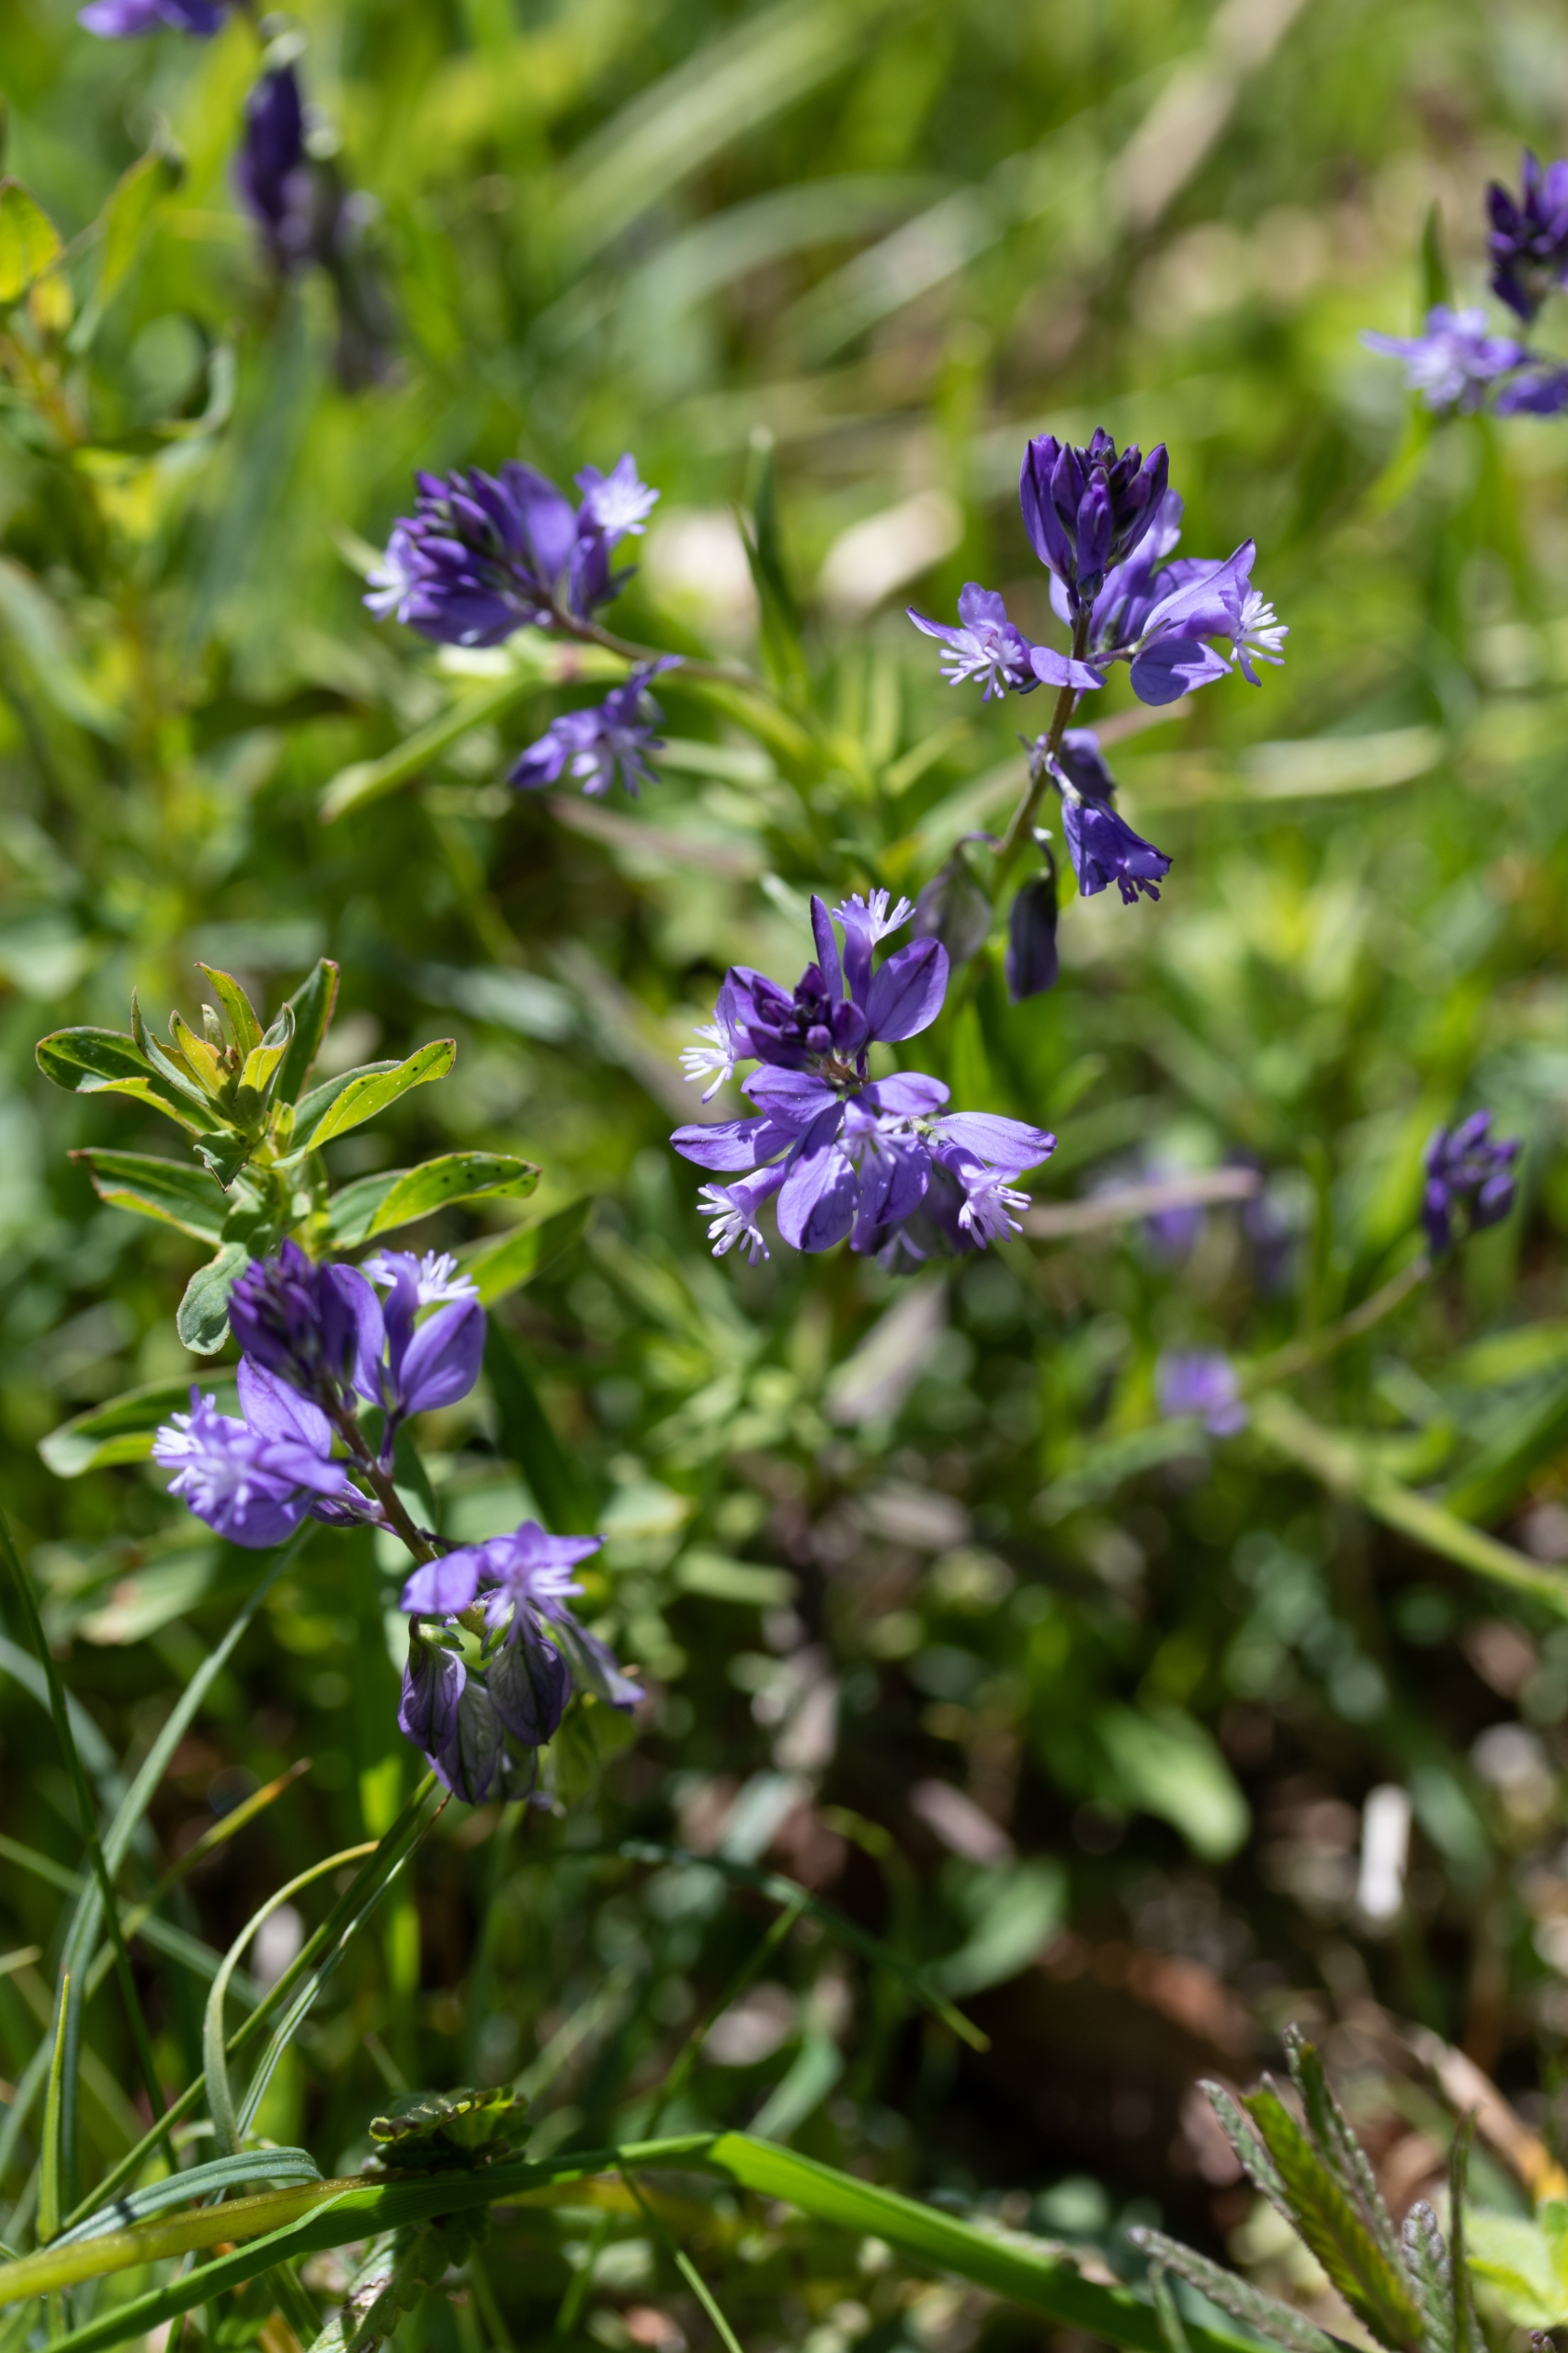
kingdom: Plantae
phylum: Tracheophyta
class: Magnoliopsida
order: Fabales
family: Polygalaceae
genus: Polygala
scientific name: Polygala vulgaris
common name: Almindelig mælkeurt
